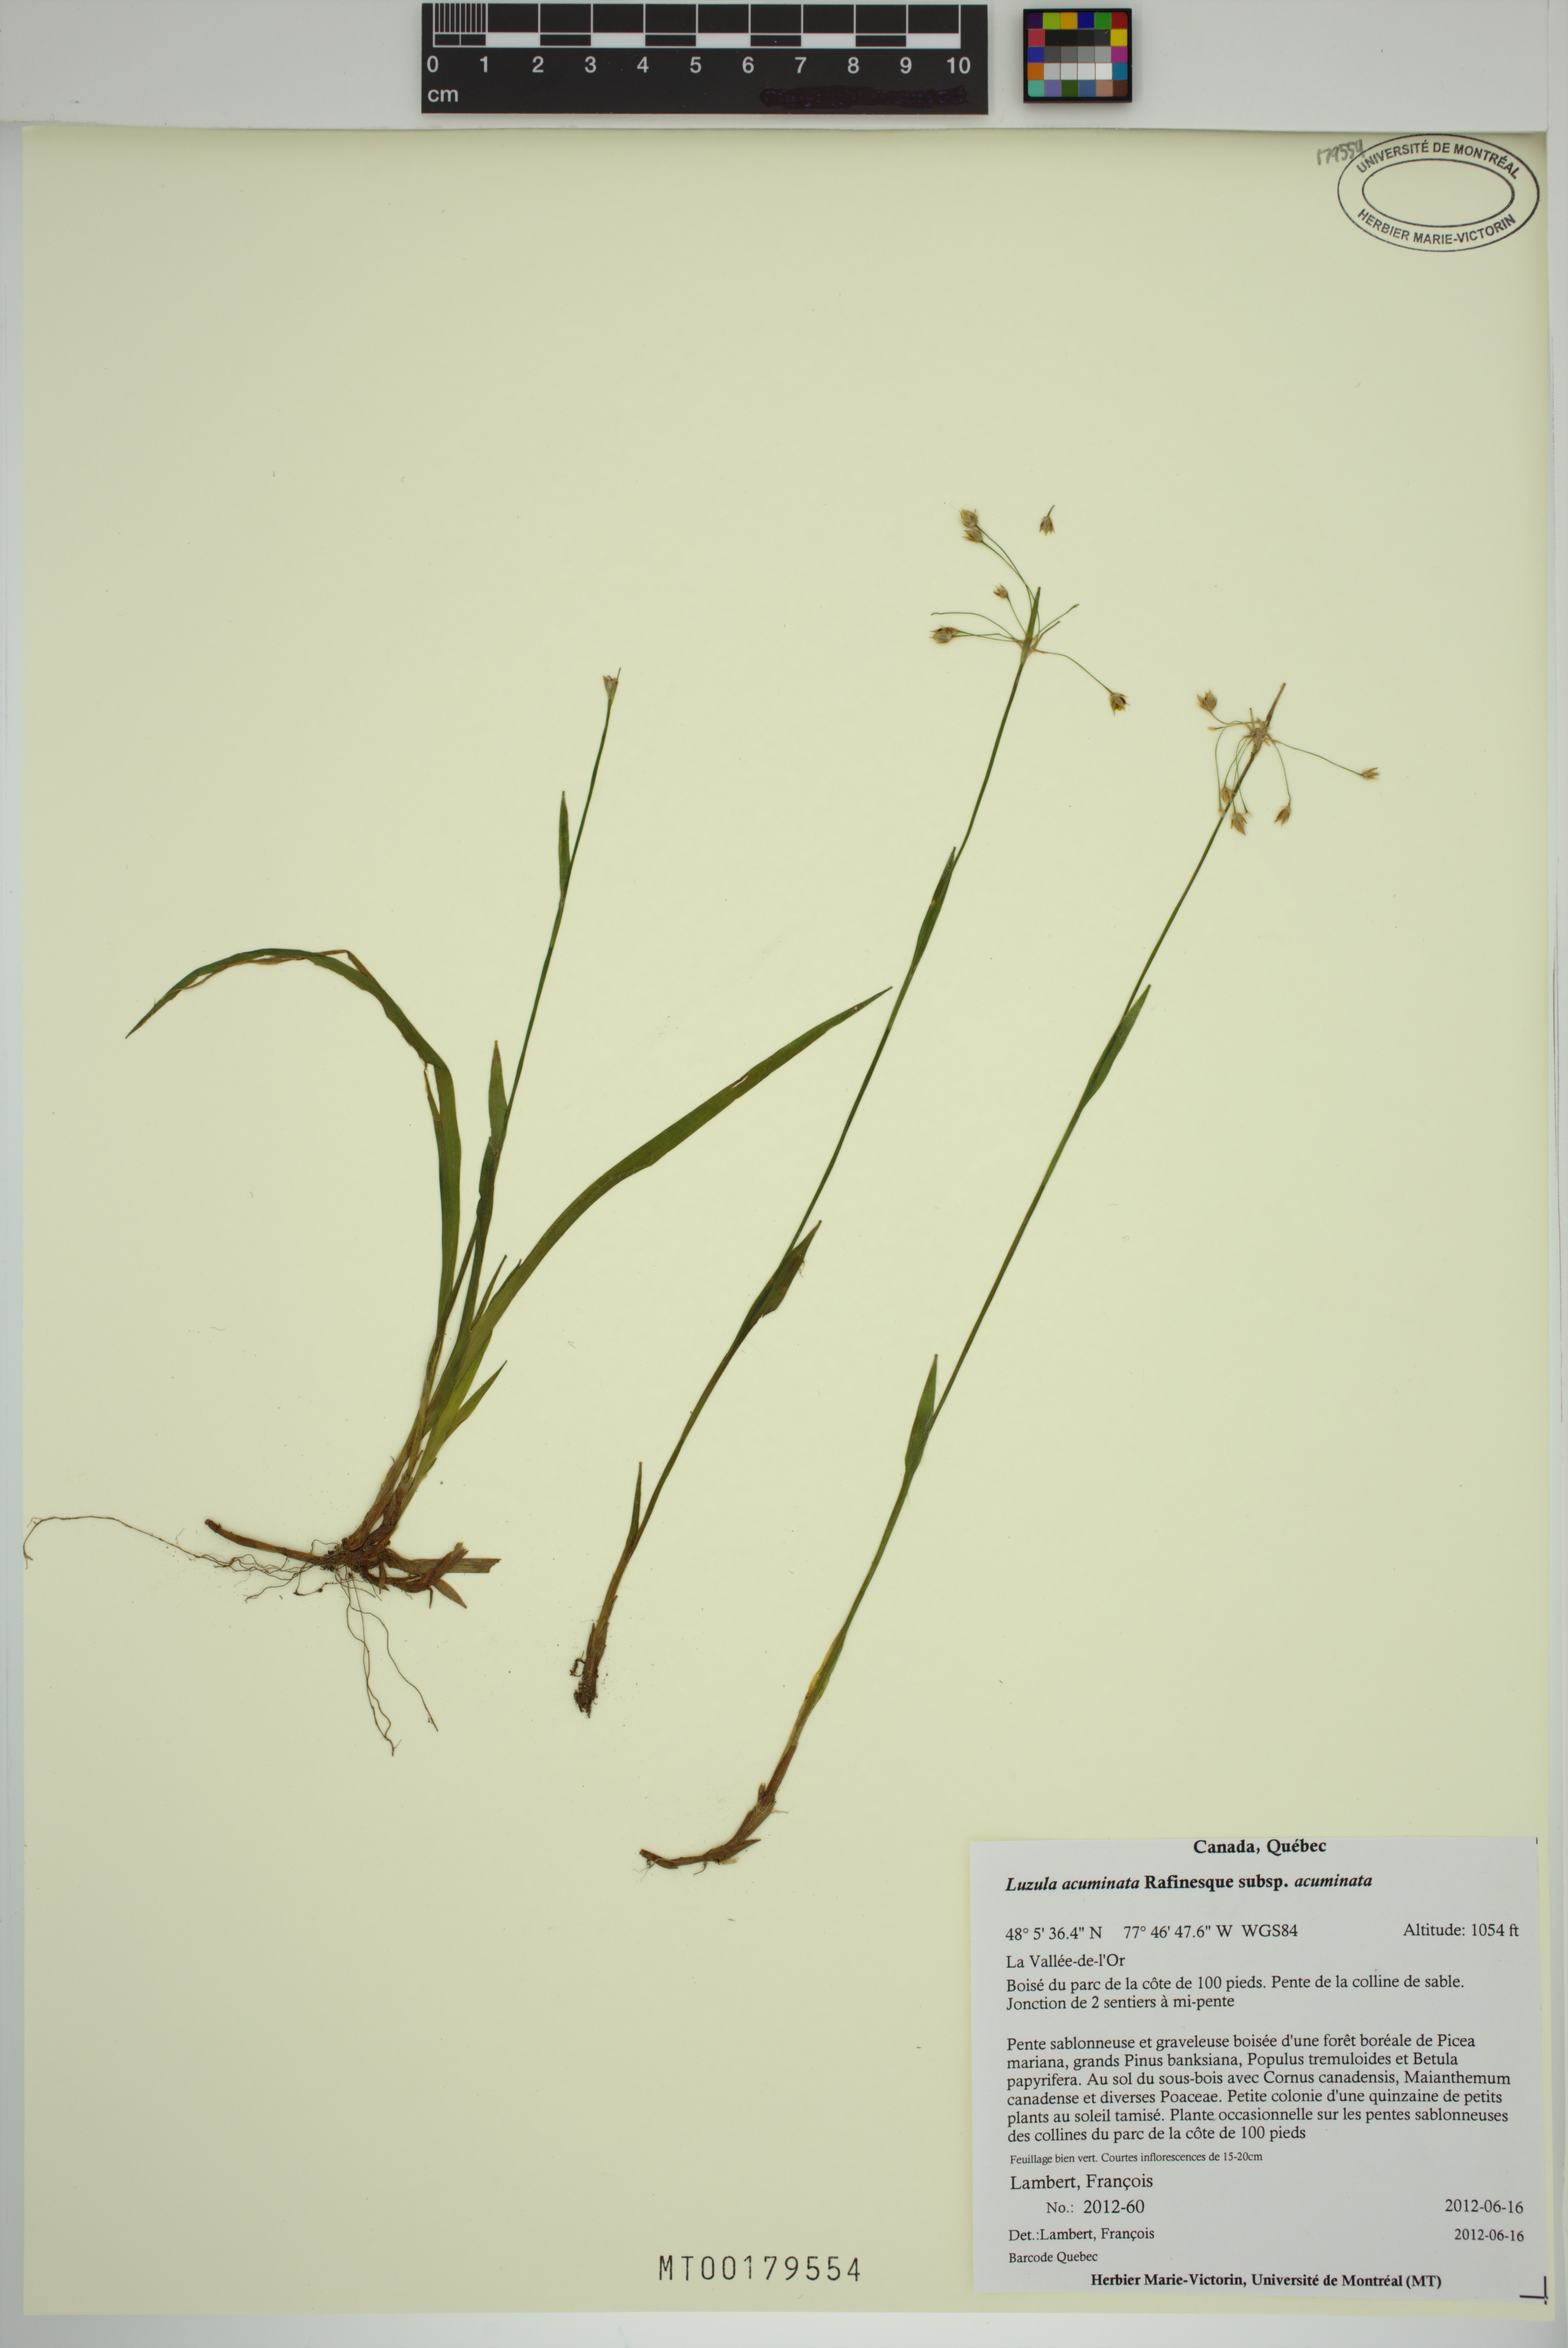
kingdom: Plantae
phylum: Tracheophyta
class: Liliopsida
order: Poales
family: Juncaceae
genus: Luzula
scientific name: Luzula acuminata
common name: Hairy woodrush
